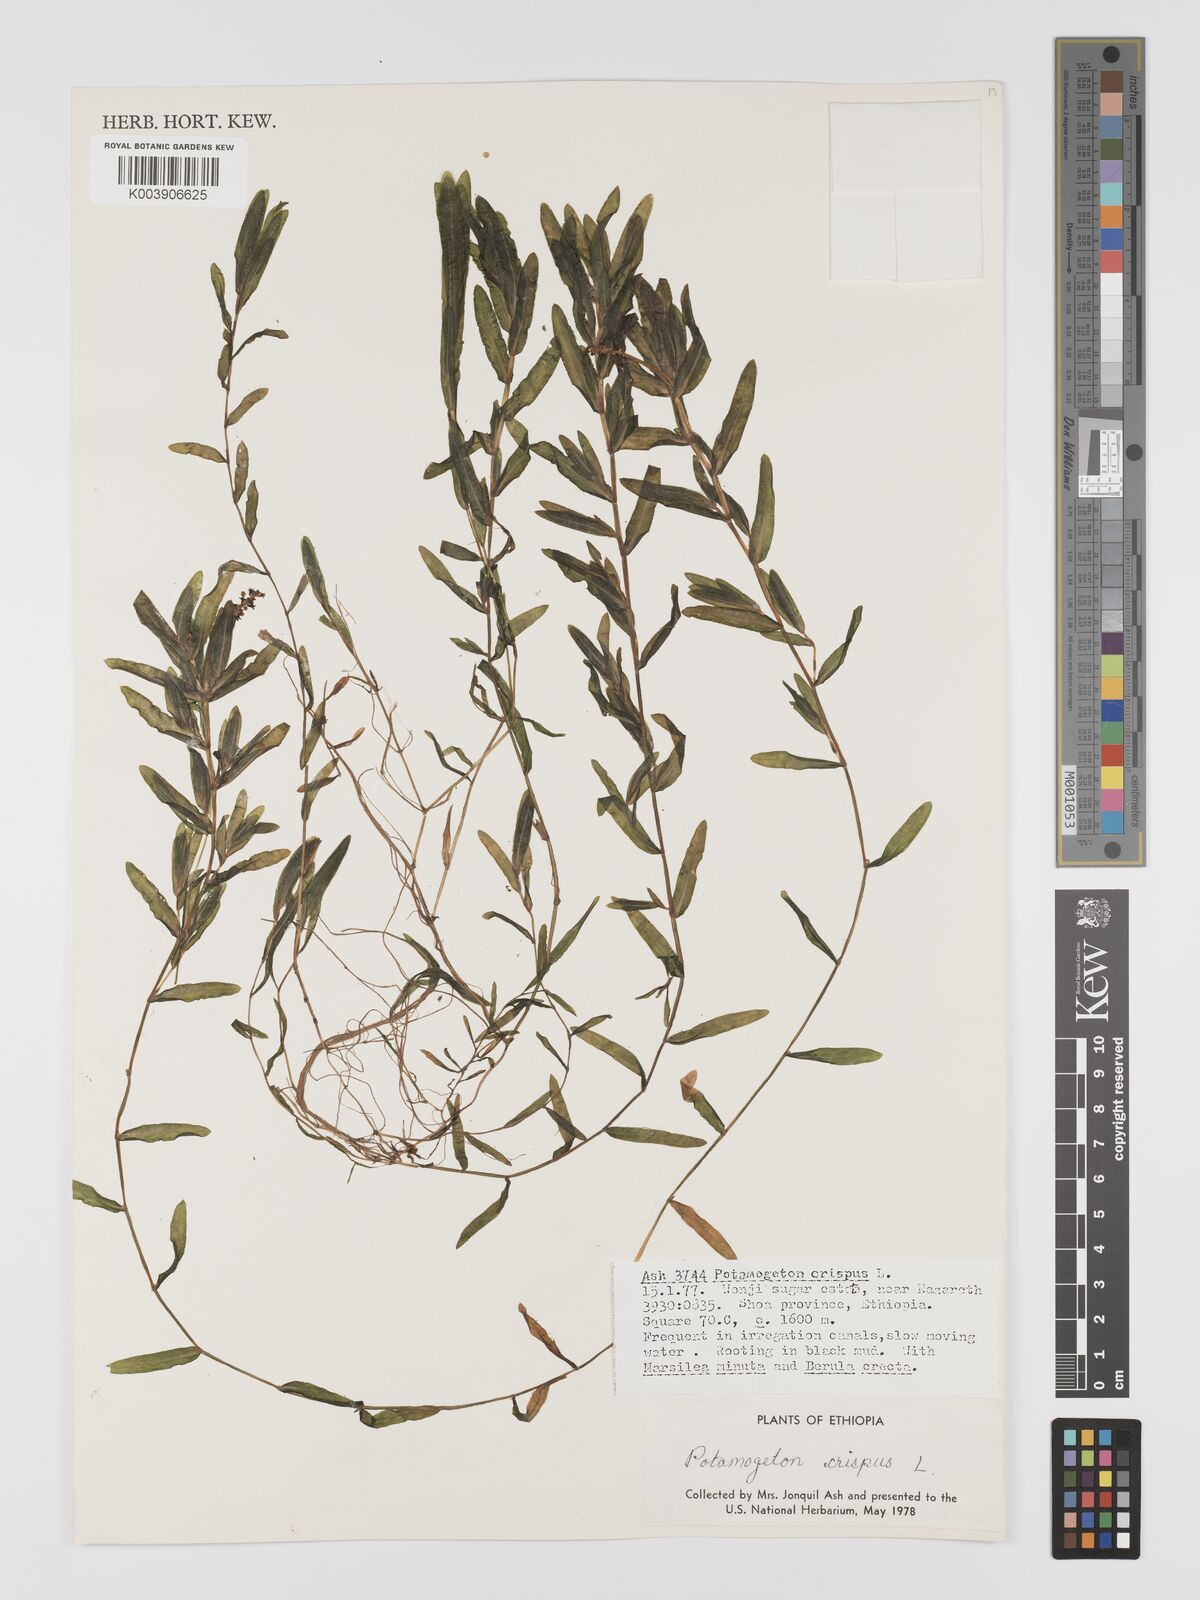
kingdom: Plantae
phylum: Tracheophyta
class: Liliopsida
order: Alismatales
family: Potamogetonaceae
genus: Potamogeton
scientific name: Potamogeton crispus
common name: Curled pondweed
